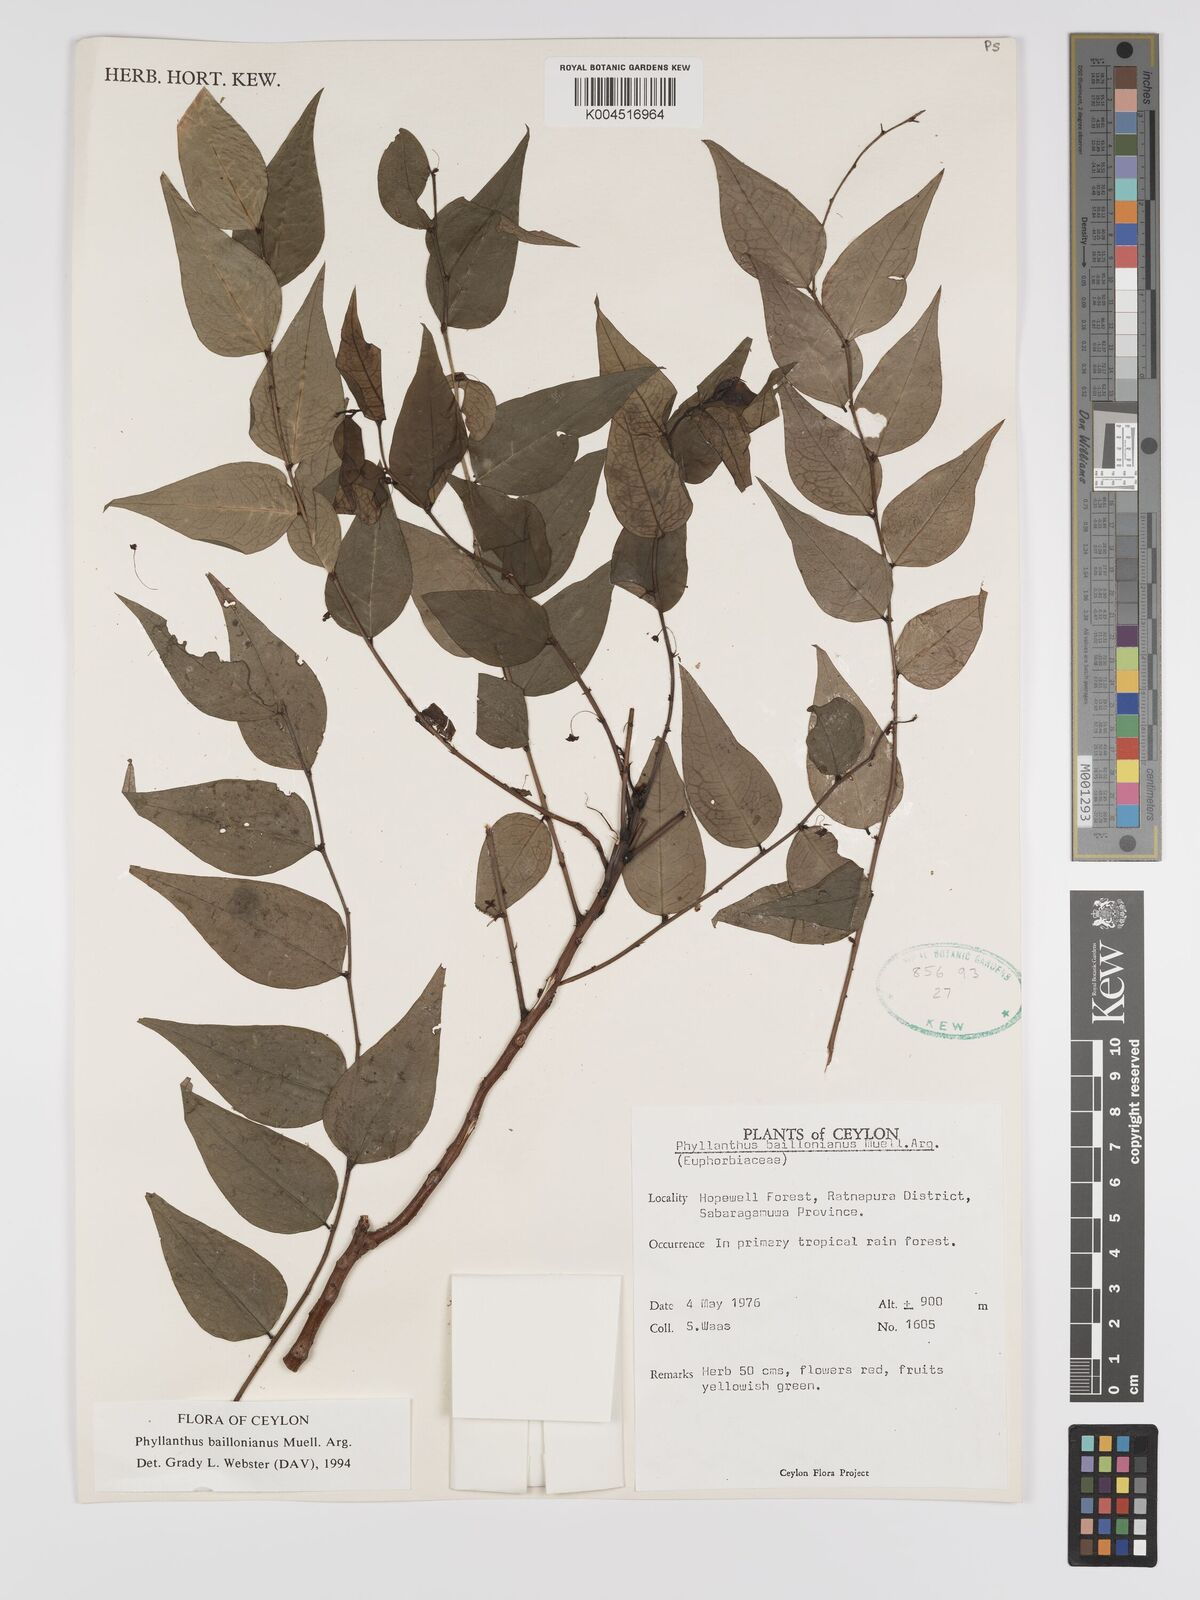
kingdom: Plantae
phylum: Tracheophyta
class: Magnoliopsida
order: Malpighiales
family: Phyllanthaceae
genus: Phyllanthus
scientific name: Phyllanthus baillonianus
